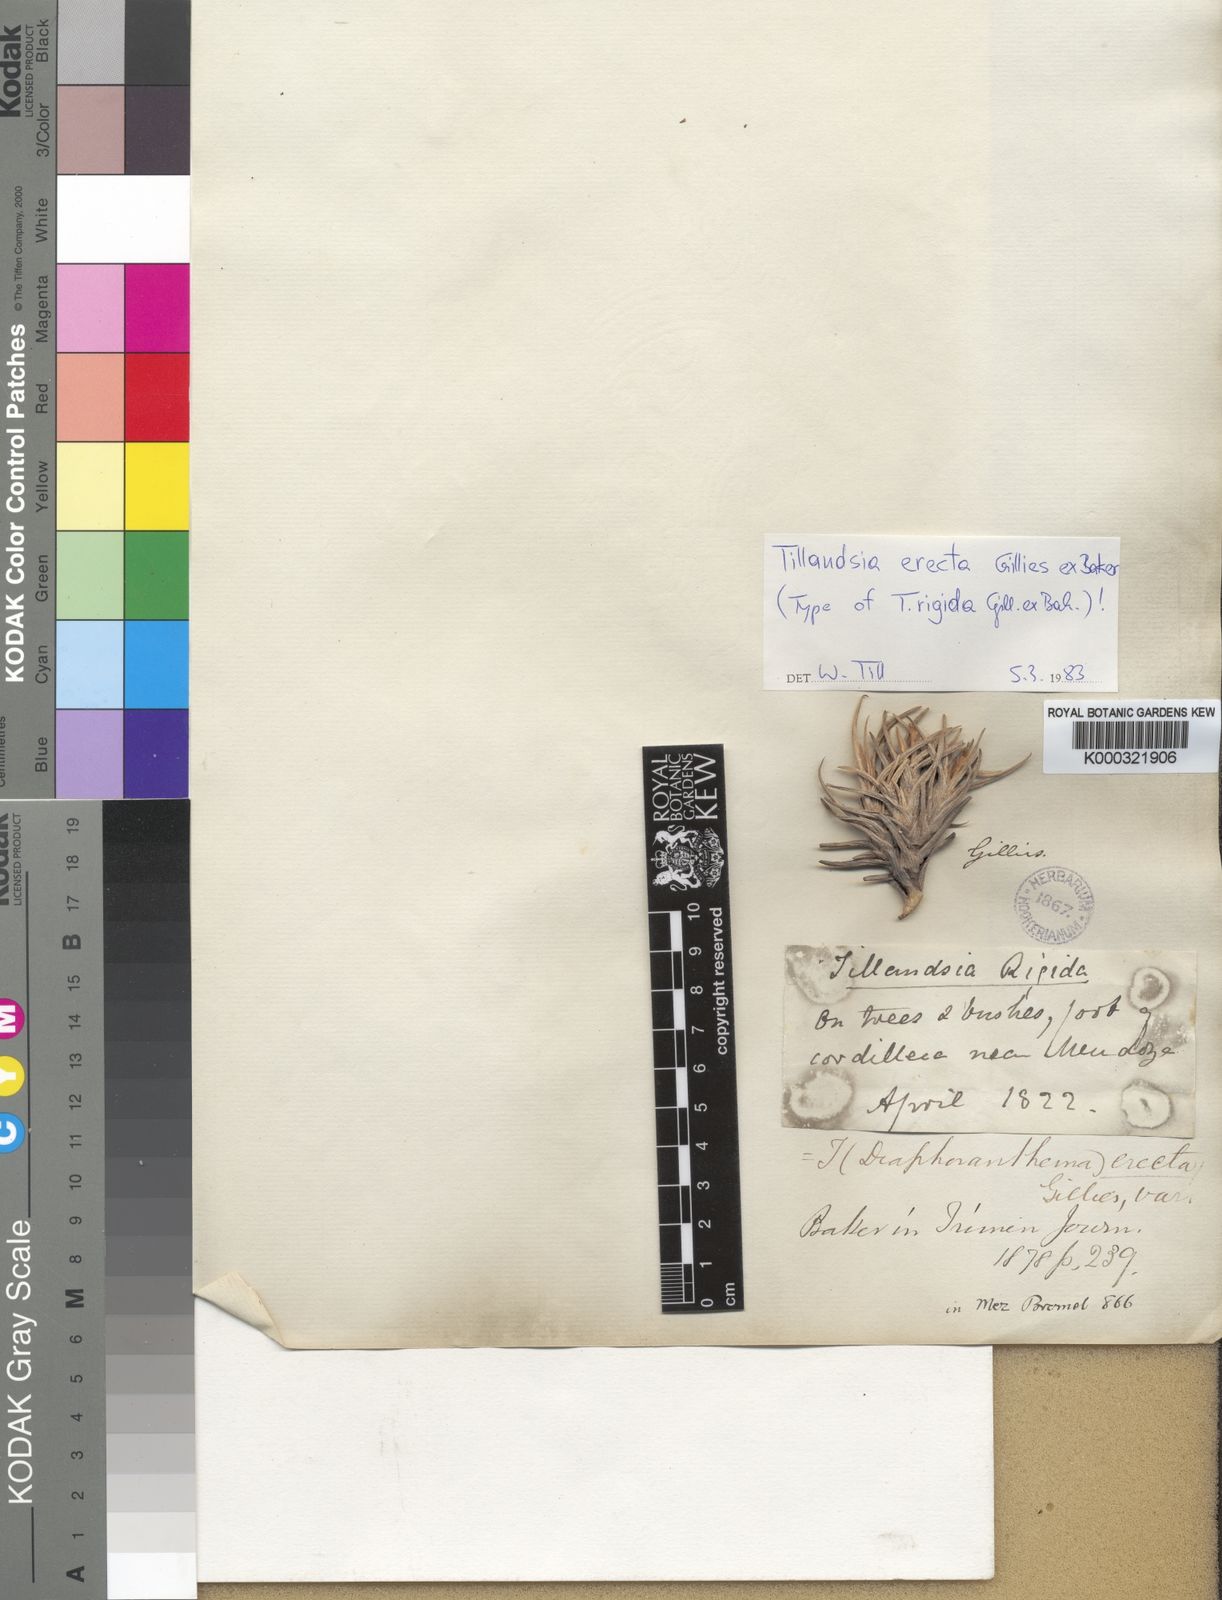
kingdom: Plantae
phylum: Tracheophyta
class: Liliopsida
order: Poales
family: Bromeliaceae
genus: Tillandsia
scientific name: Tillandsia erecta
